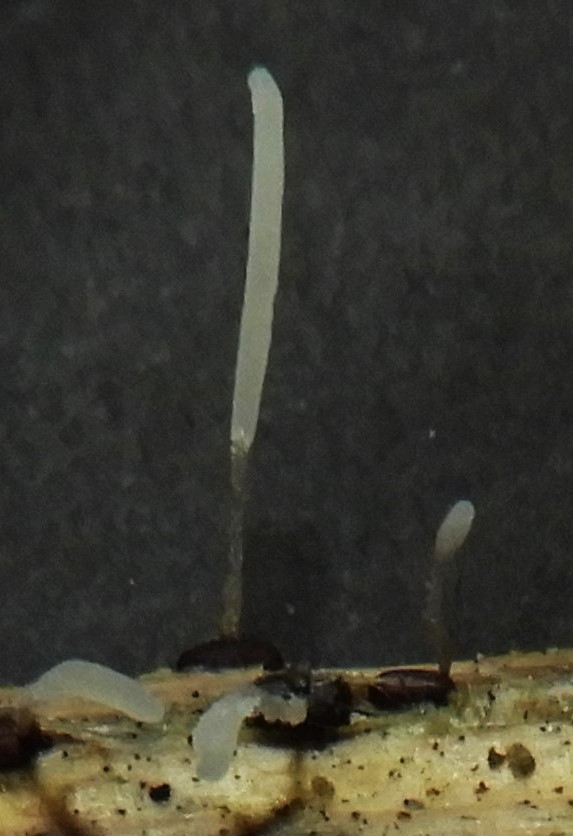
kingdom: Fungi
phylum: Basidiomycota
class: Agaricomycetes
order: Agaricales
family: Typhulaceae
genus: Typhula
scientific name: Typhula
